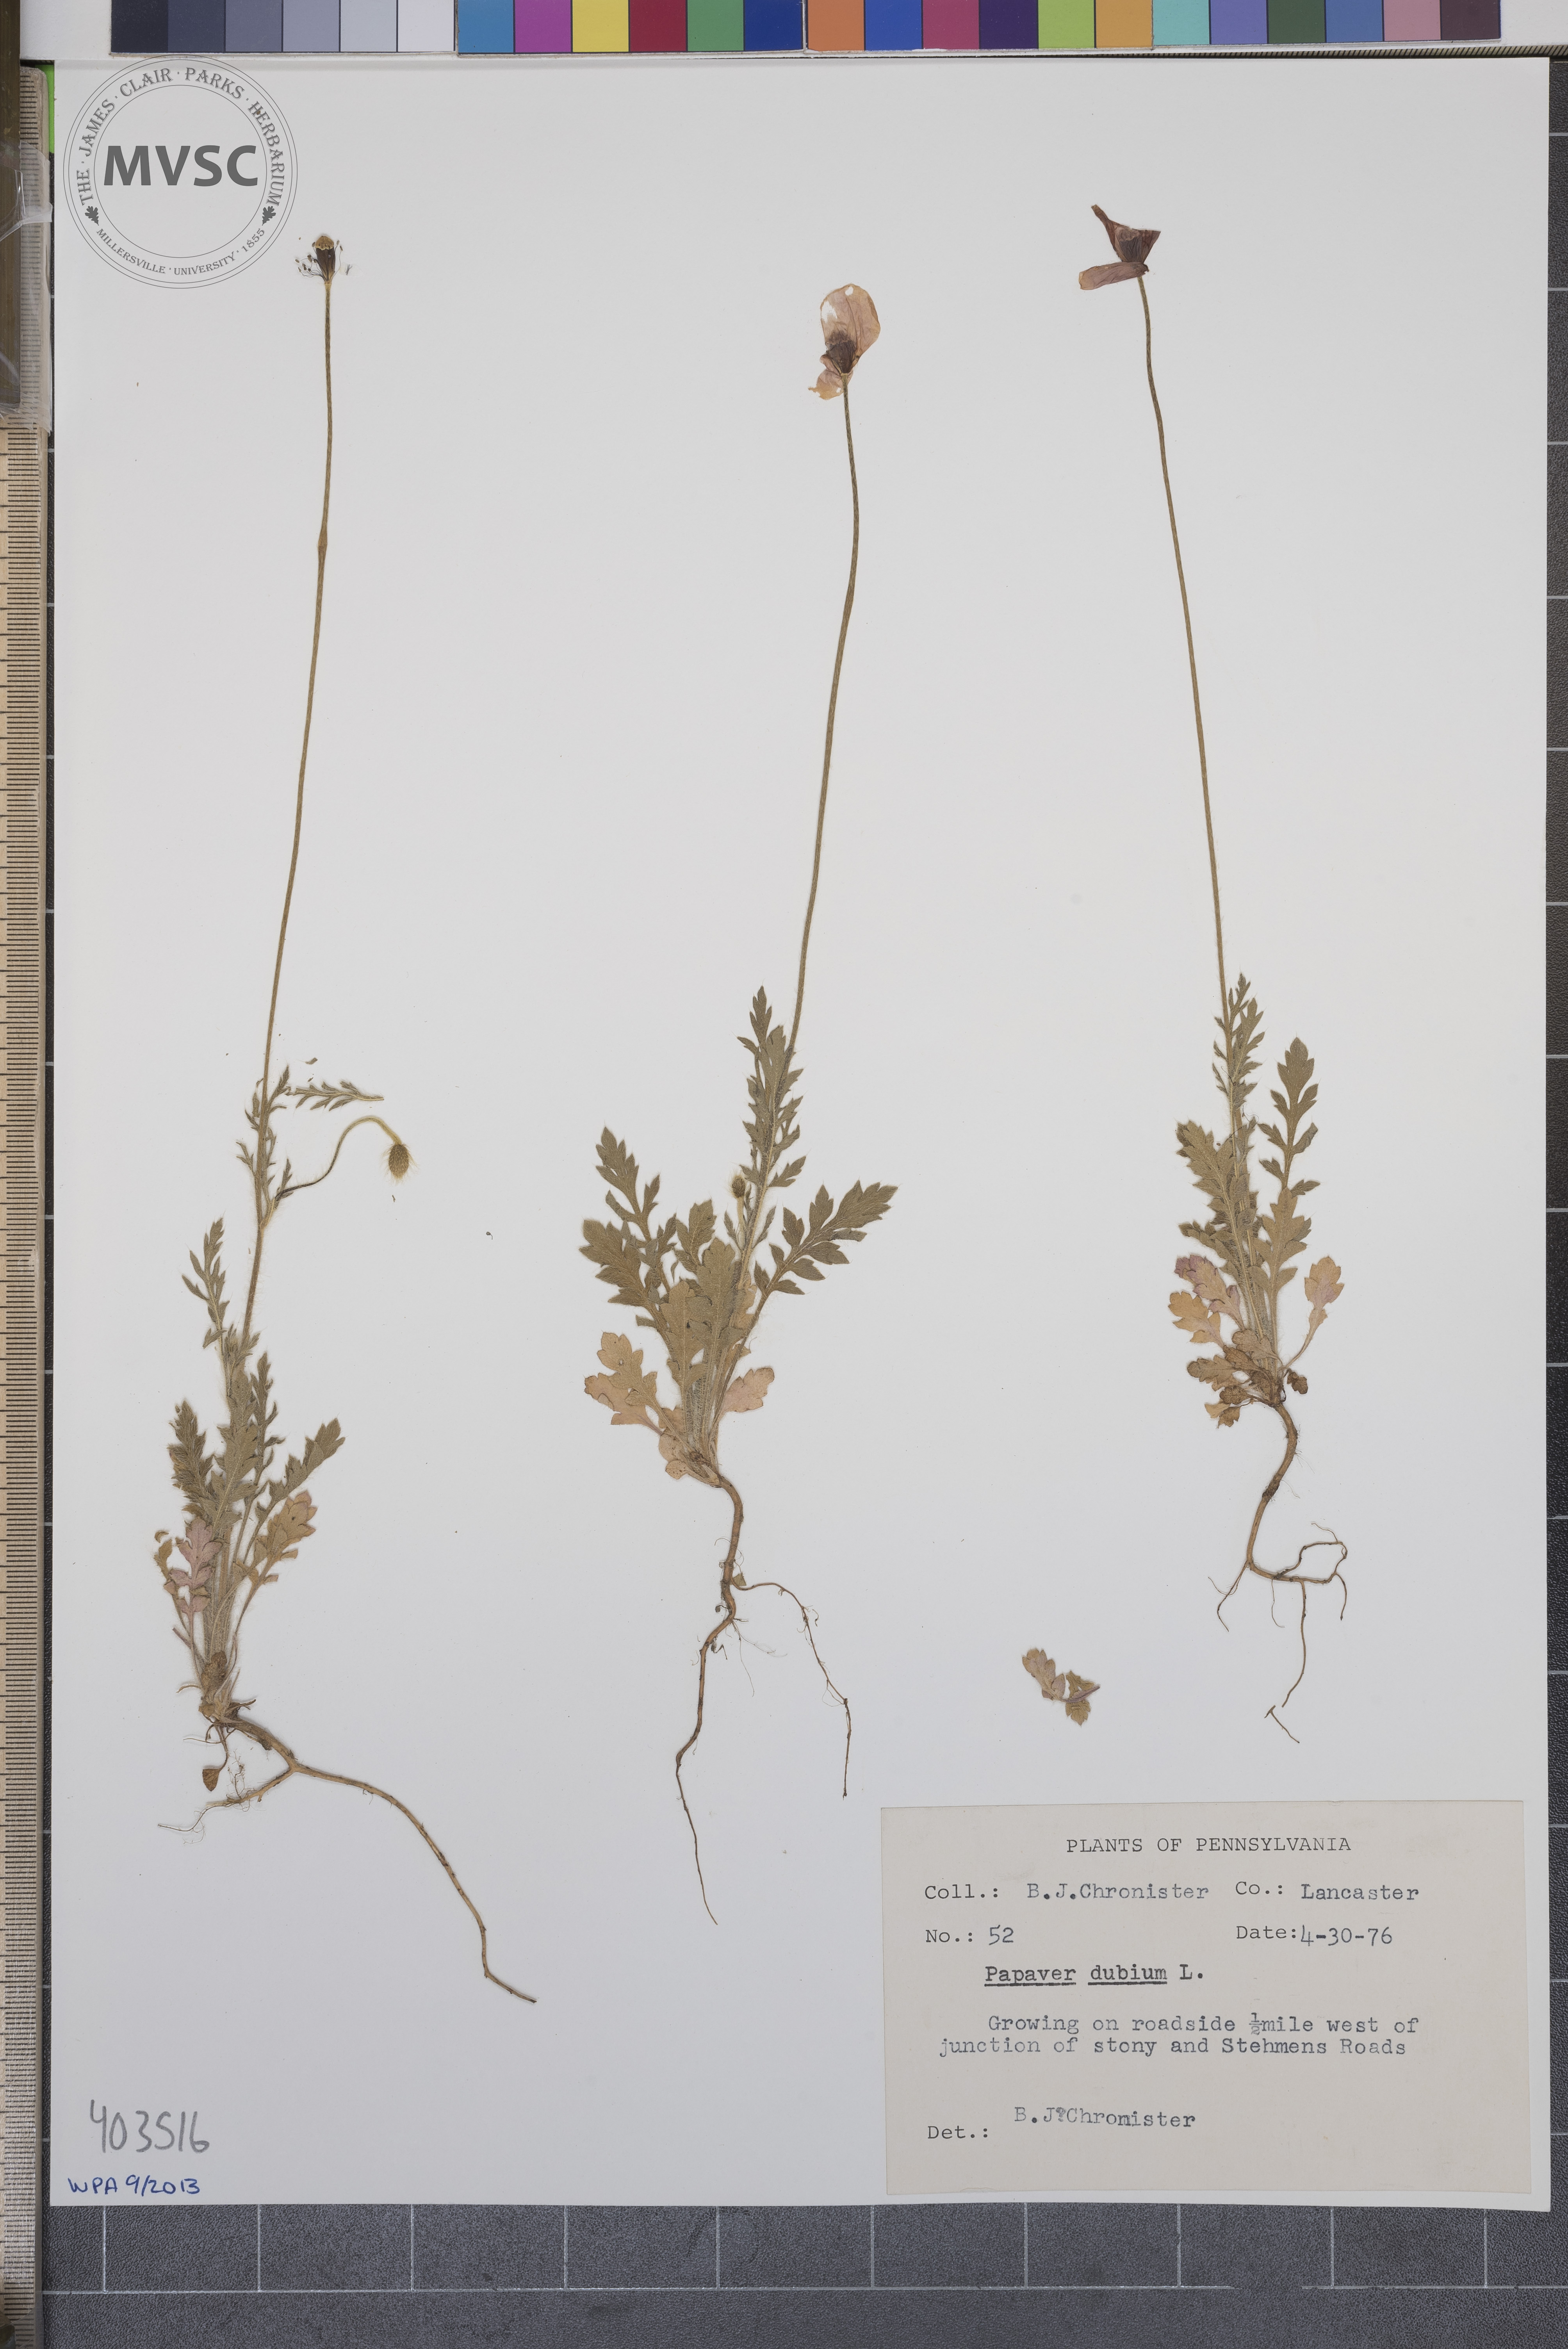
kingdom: Plantae
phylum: Tracheophyta
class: Magnoliopsida
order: Ranunculales
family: Papaveraceae
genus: Papaver
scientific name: Papaver dubium
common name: Long-headed poppy
